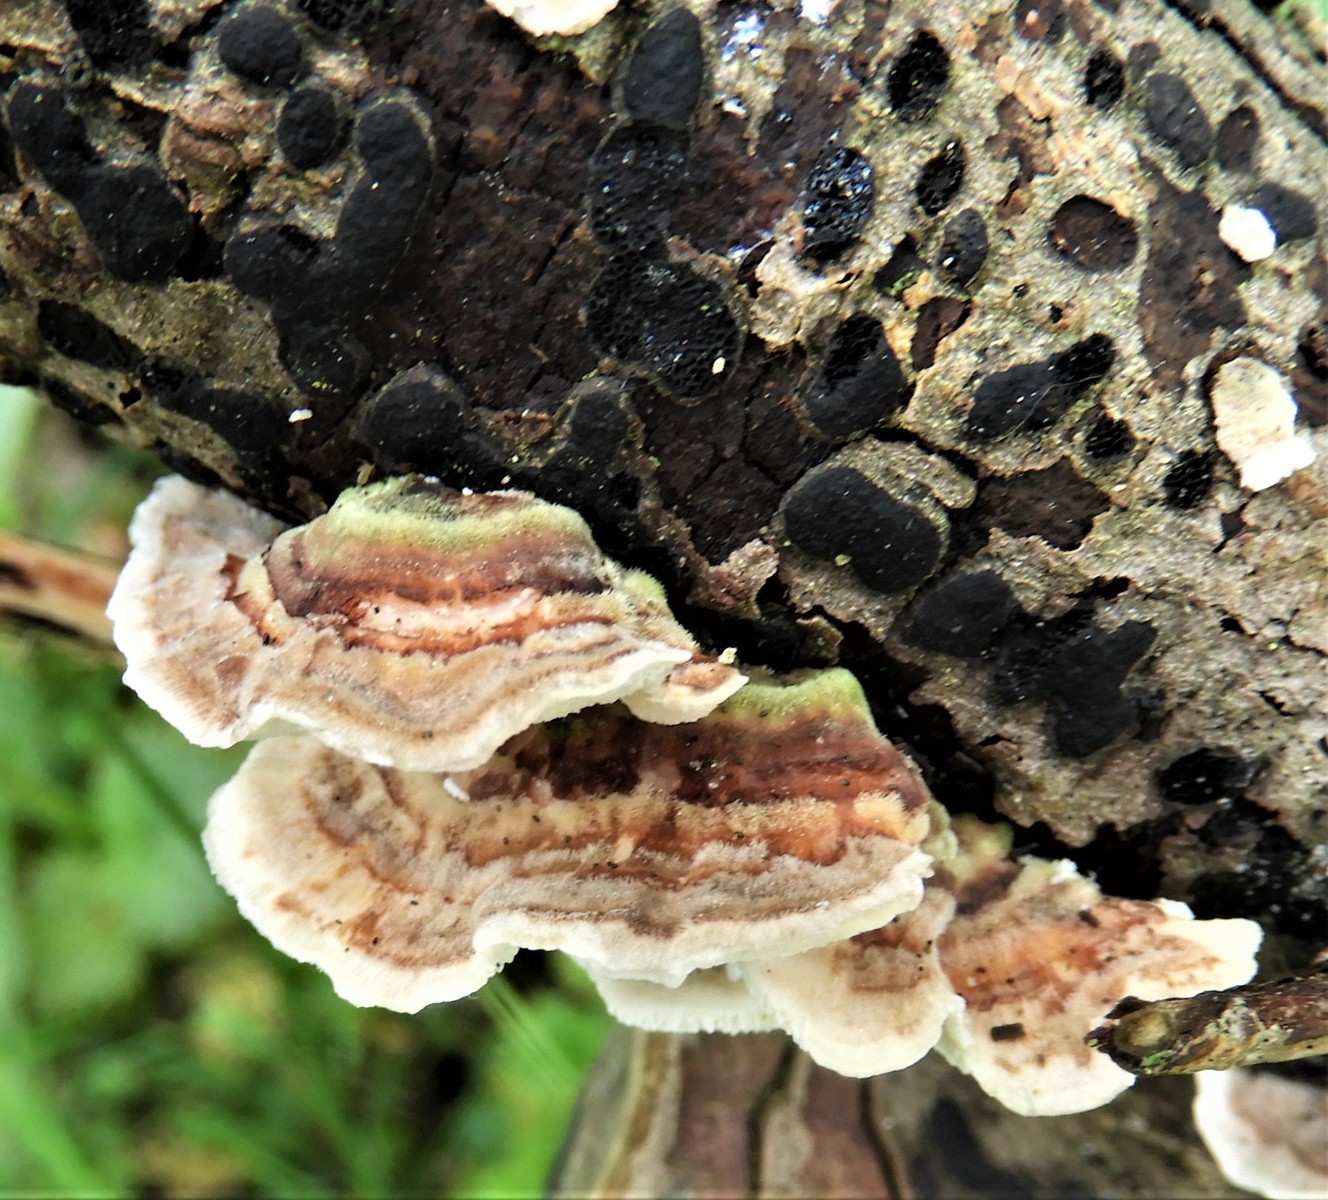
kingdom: Fungi
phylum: Basidiomycota
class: Agaricomycetes
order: Polyporales
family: Polyporaceae
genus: Trametes
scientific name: Trametes versicolor
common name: broget læderporesvamp
